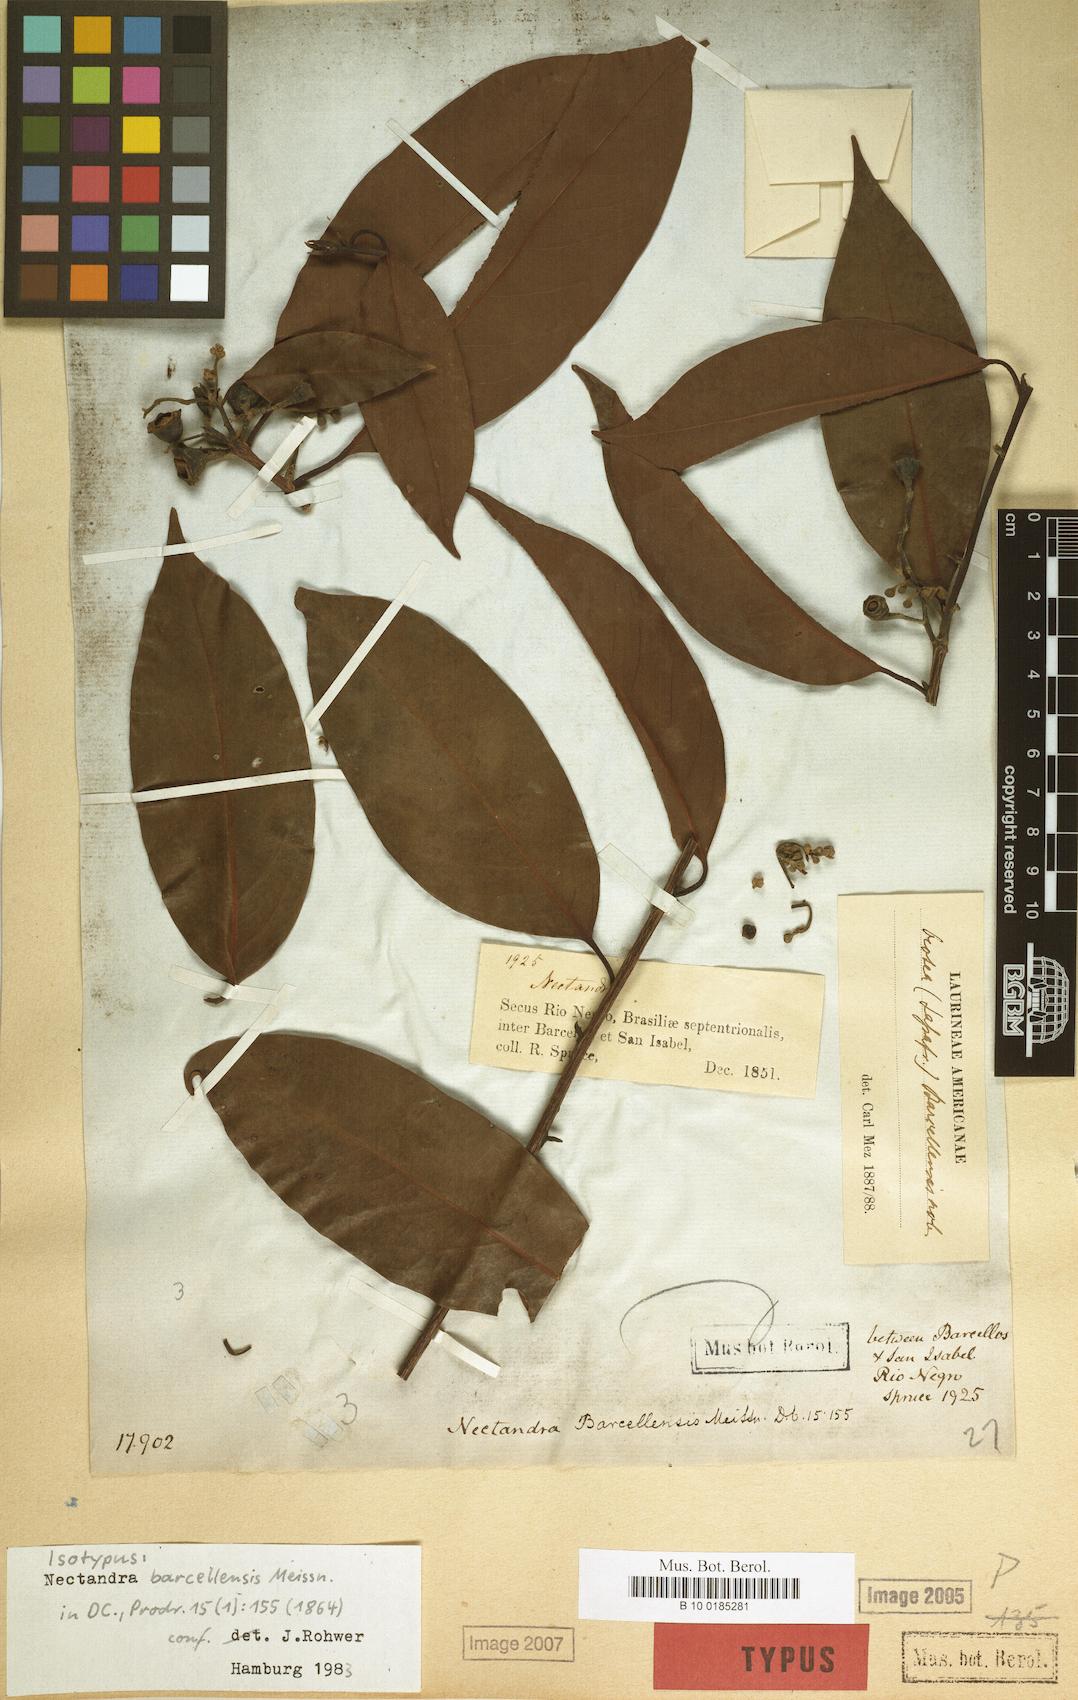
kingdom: Plantae
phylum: Tracheophyta
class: Magnoliopsida
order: Laurales
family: Lauraceae
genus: Mespilodaphne
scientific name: Mespilodaphne cymbarum
